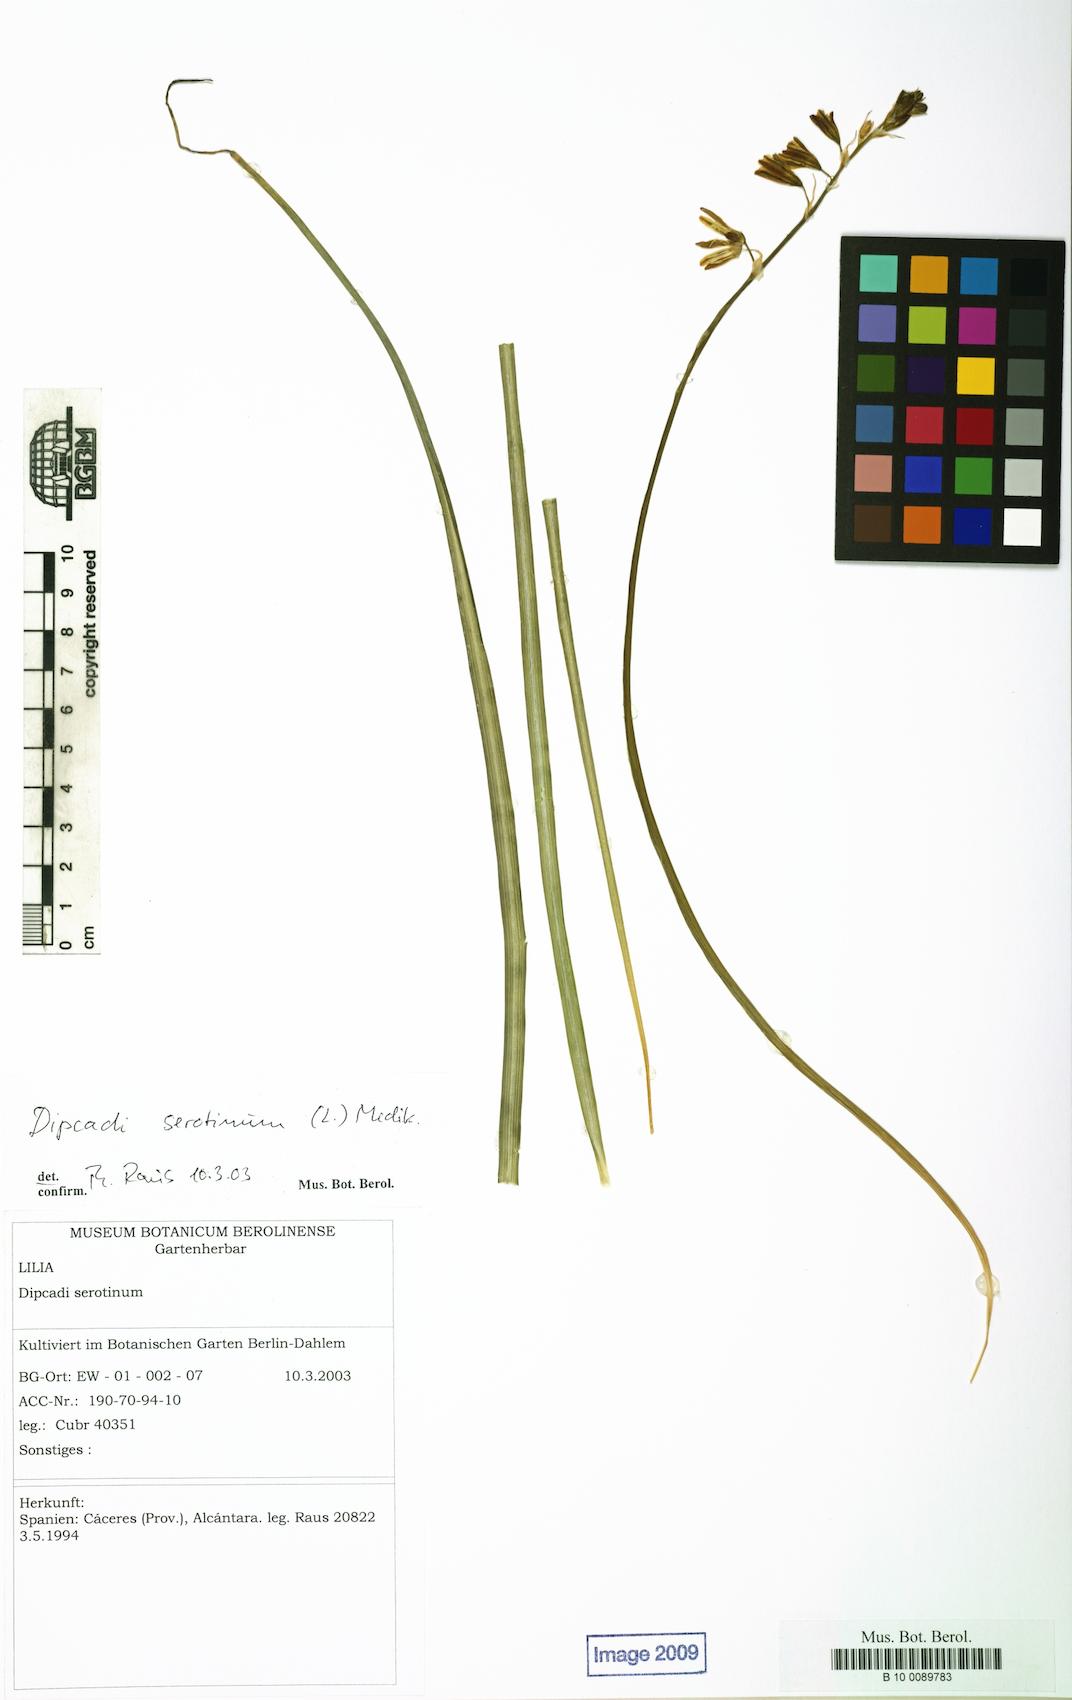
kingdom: Plantae
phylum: Tracheophyta
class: Liliopsida
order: Asparagales
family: Asparagaceae
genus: Dipcadi
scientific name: Dipcadi serotinum
